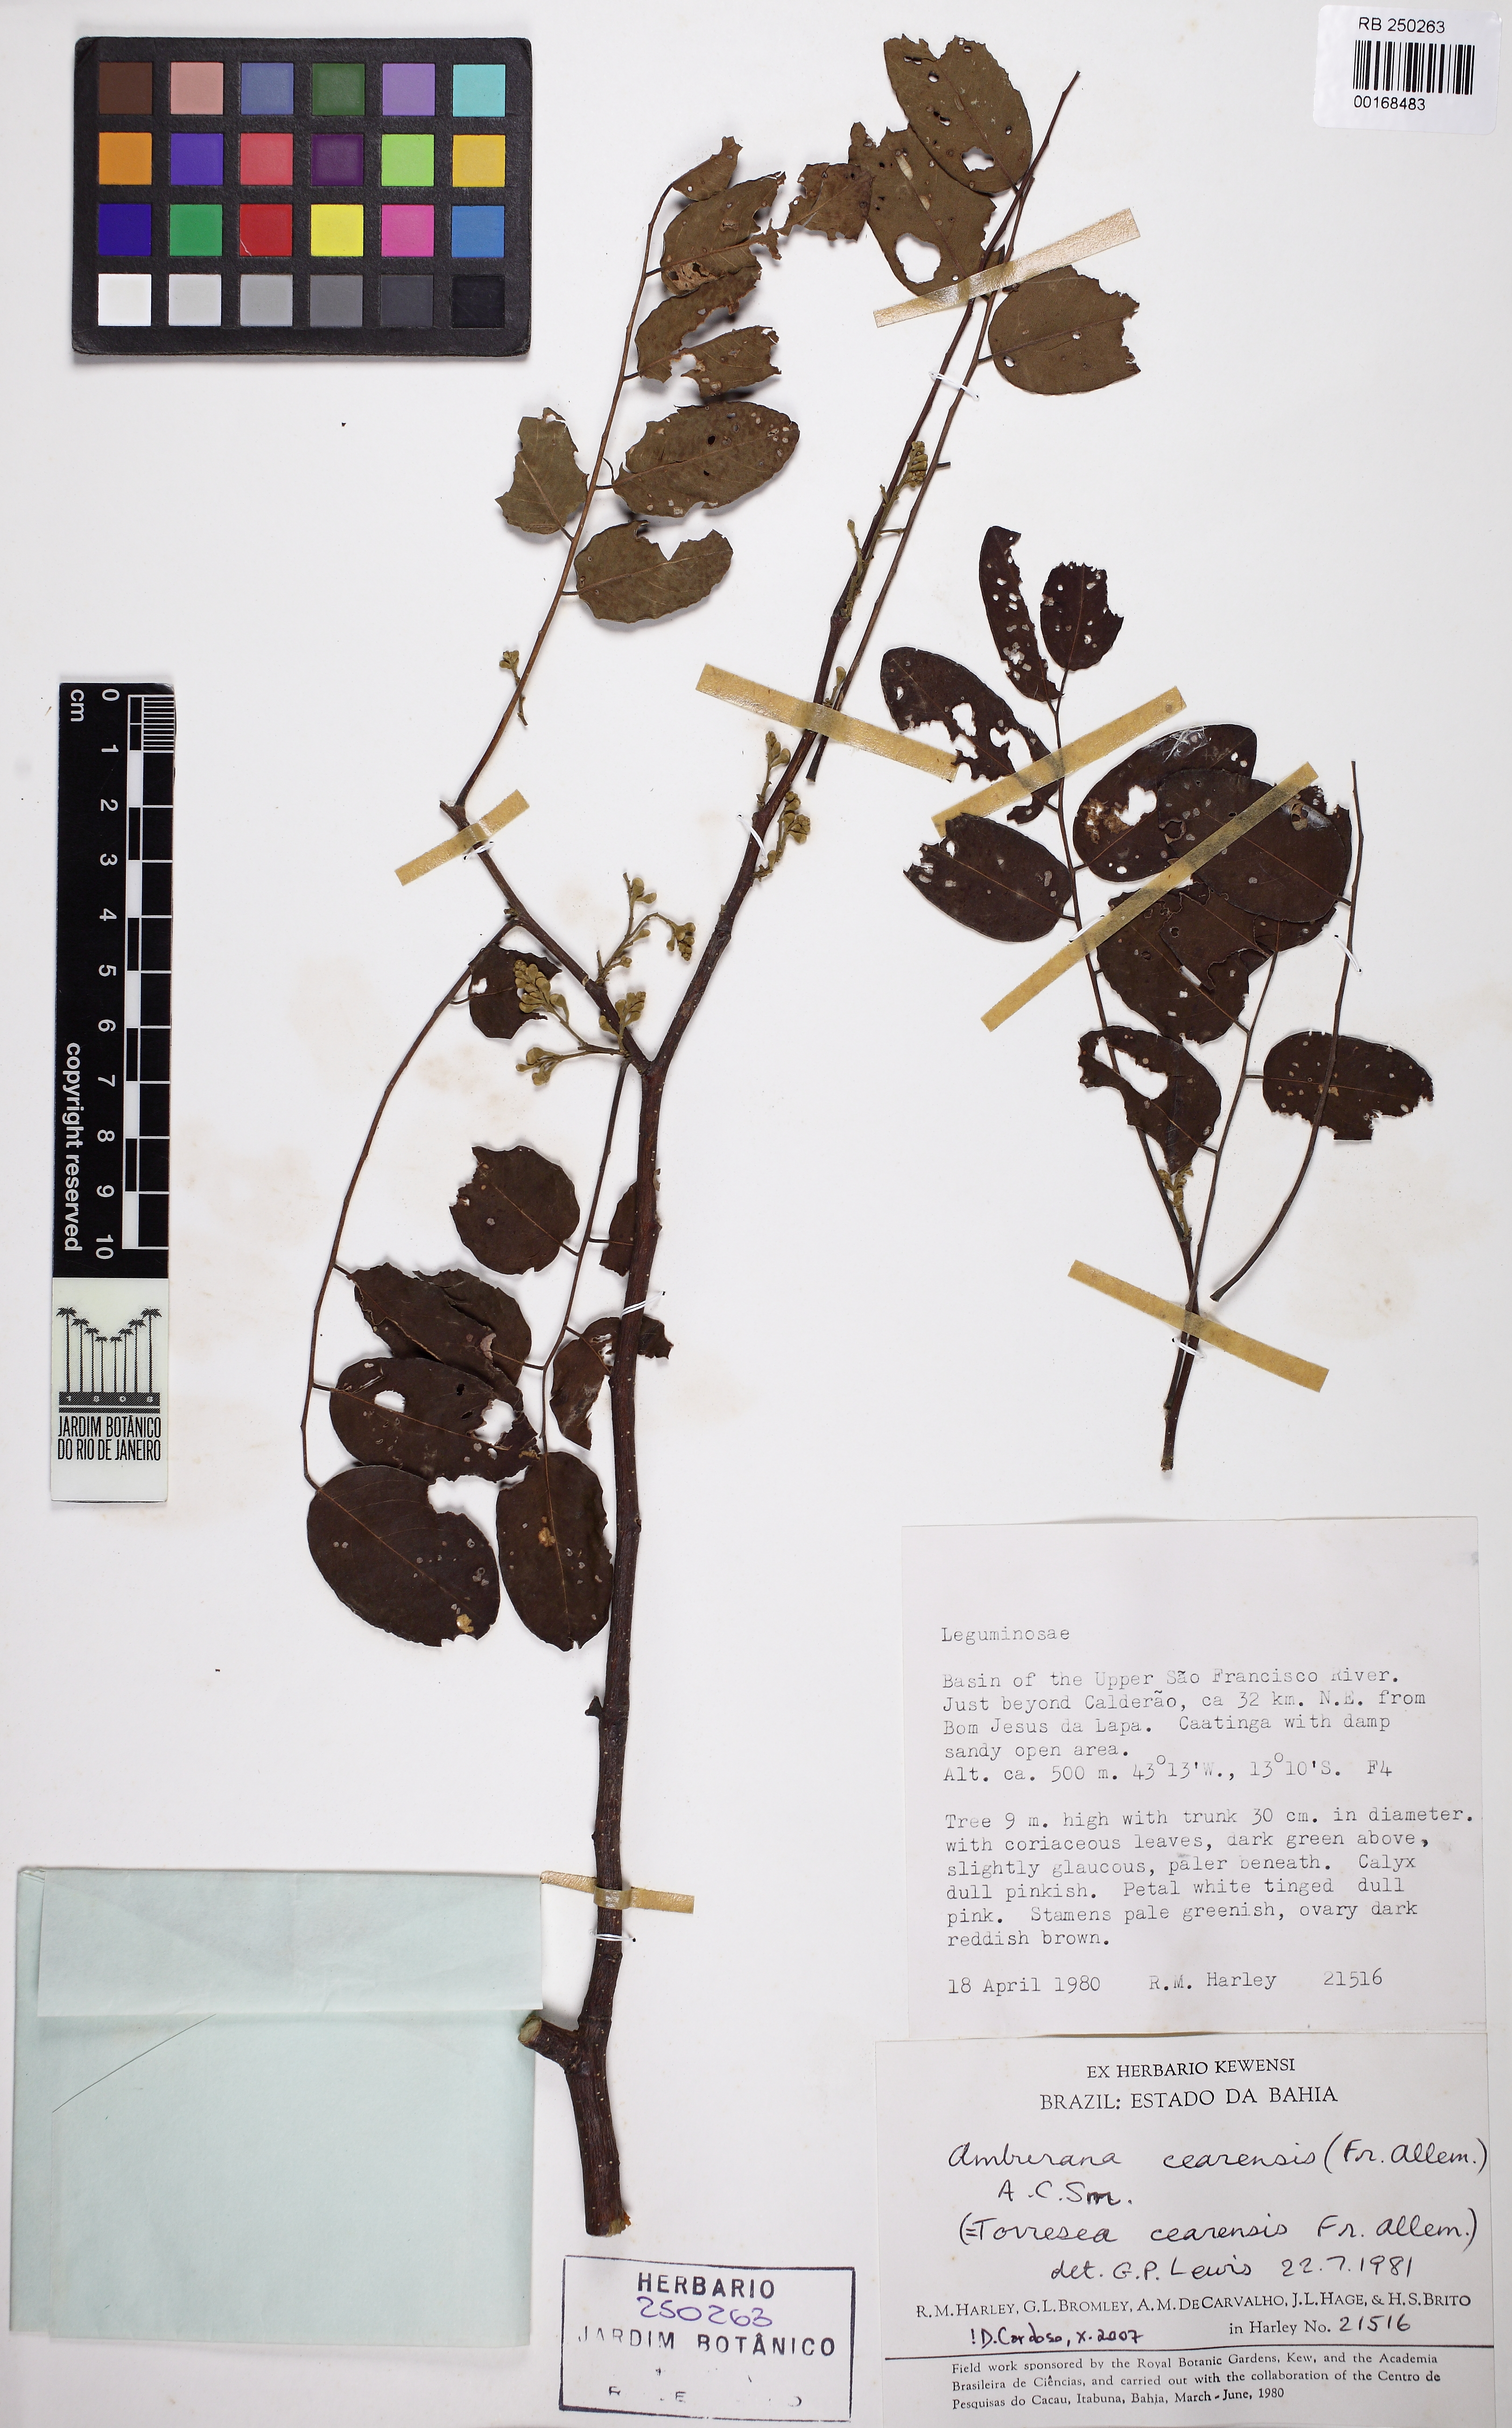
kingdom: Plantae
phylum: Tracheophyta
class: Magnoliopsida
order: Fabales
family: Fabaceae
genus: Amburana
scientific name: Amburana cearensis
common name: Cerejeira
